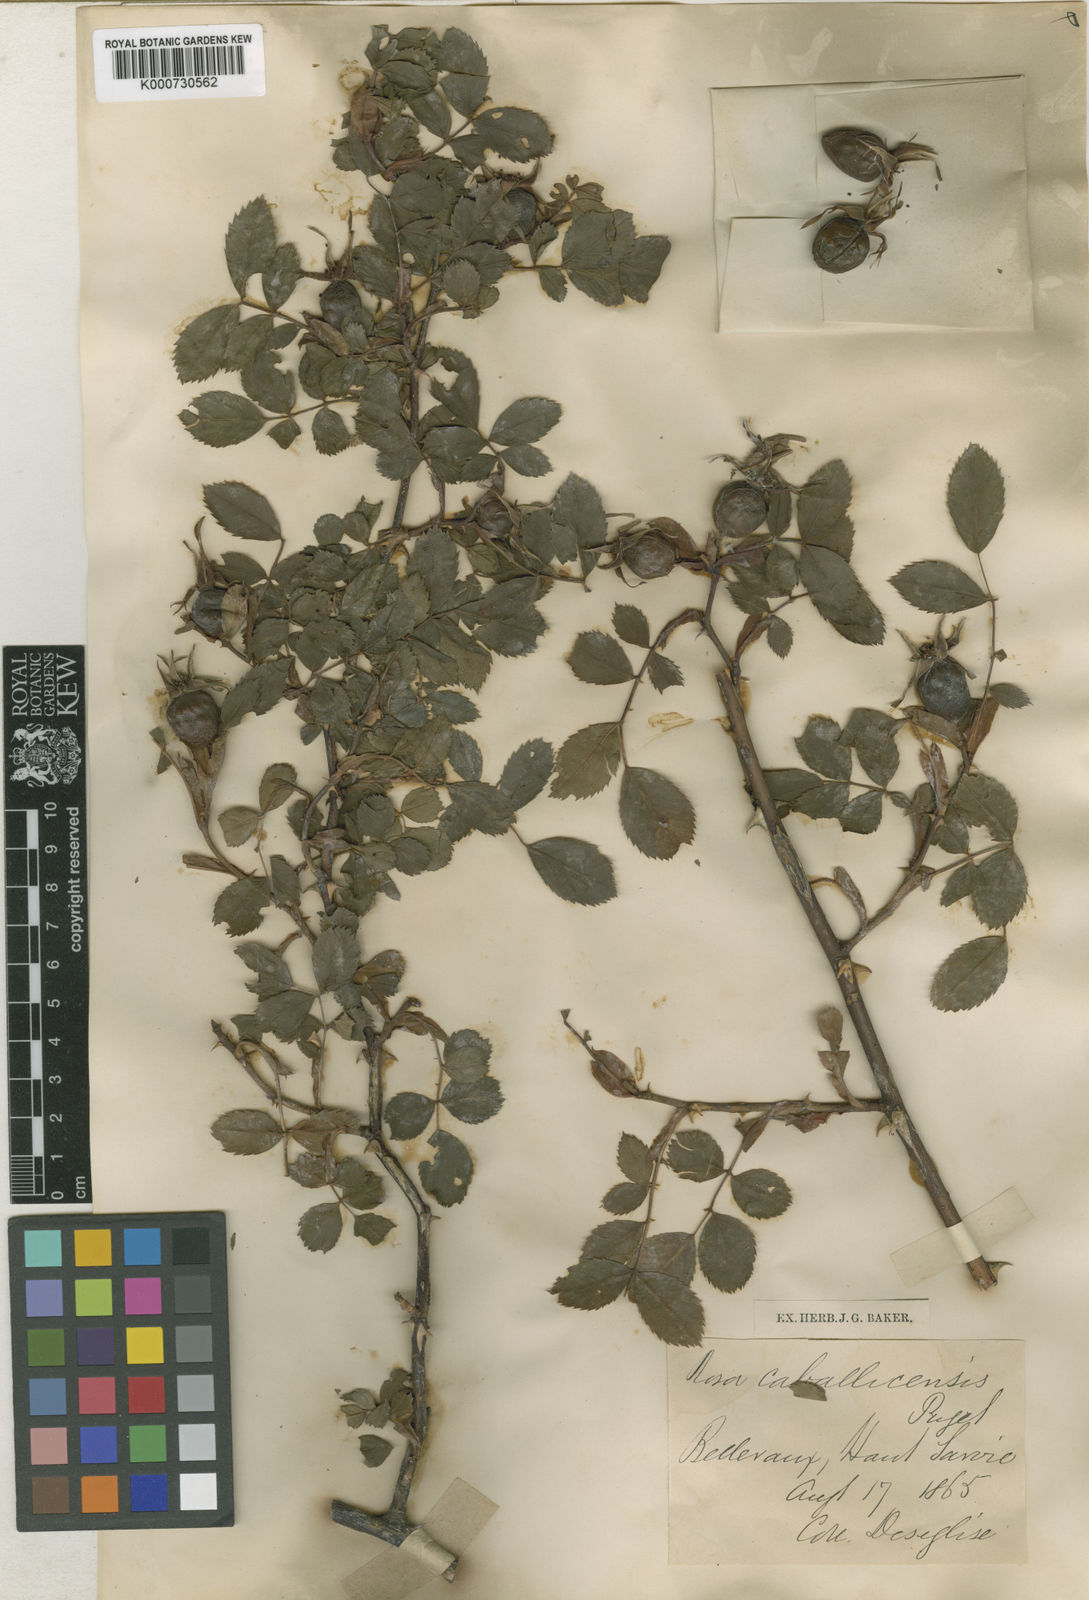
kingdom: Plantae
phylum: Tracheophyta
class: Magnoliopsida
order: Rosales
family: Rosaceae
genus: Rosa
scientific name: Rosa dumalis
